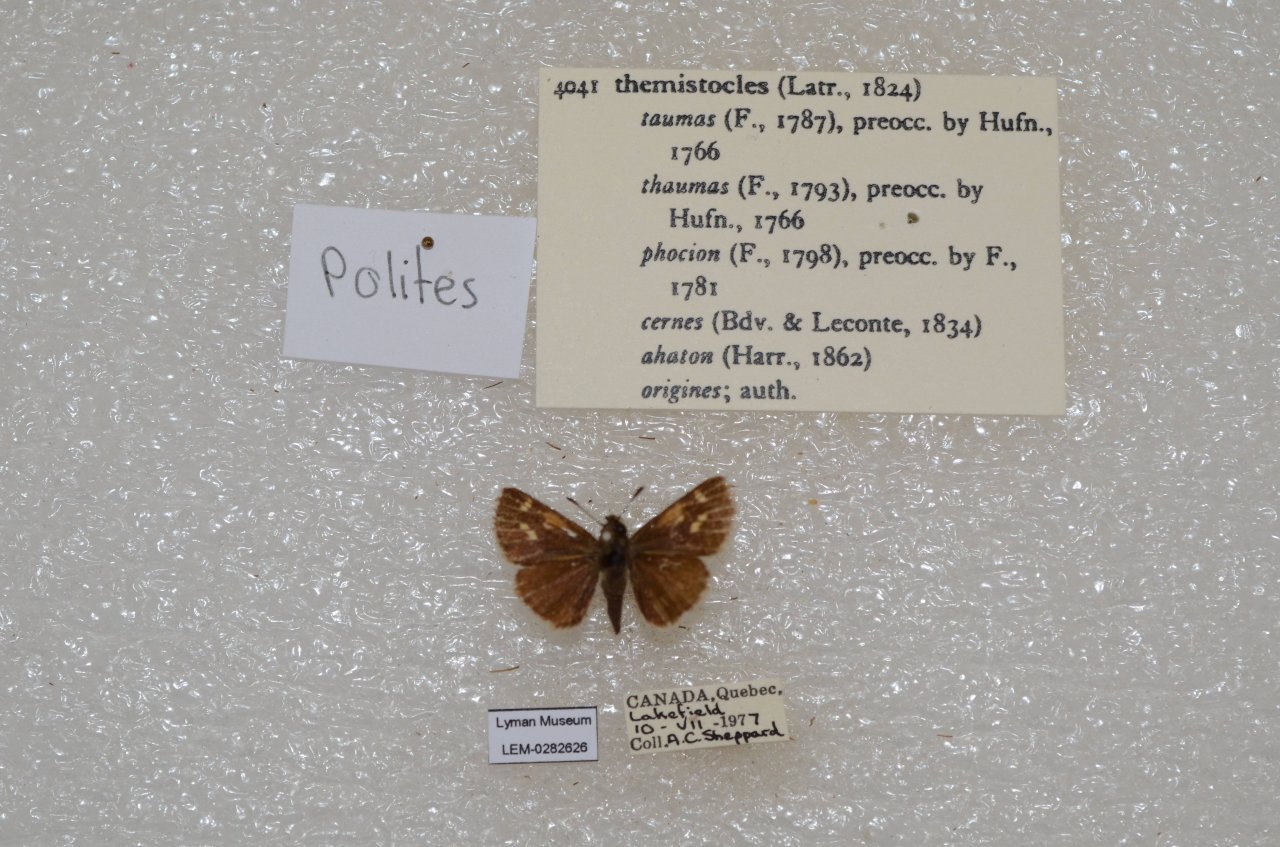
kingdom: Animalia
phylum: Arthropoda
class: Insecta
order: Lepidoptera
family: Hesperiidae
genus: Polites
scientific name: Polites themistocles
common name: Tawny-edged Skipper
